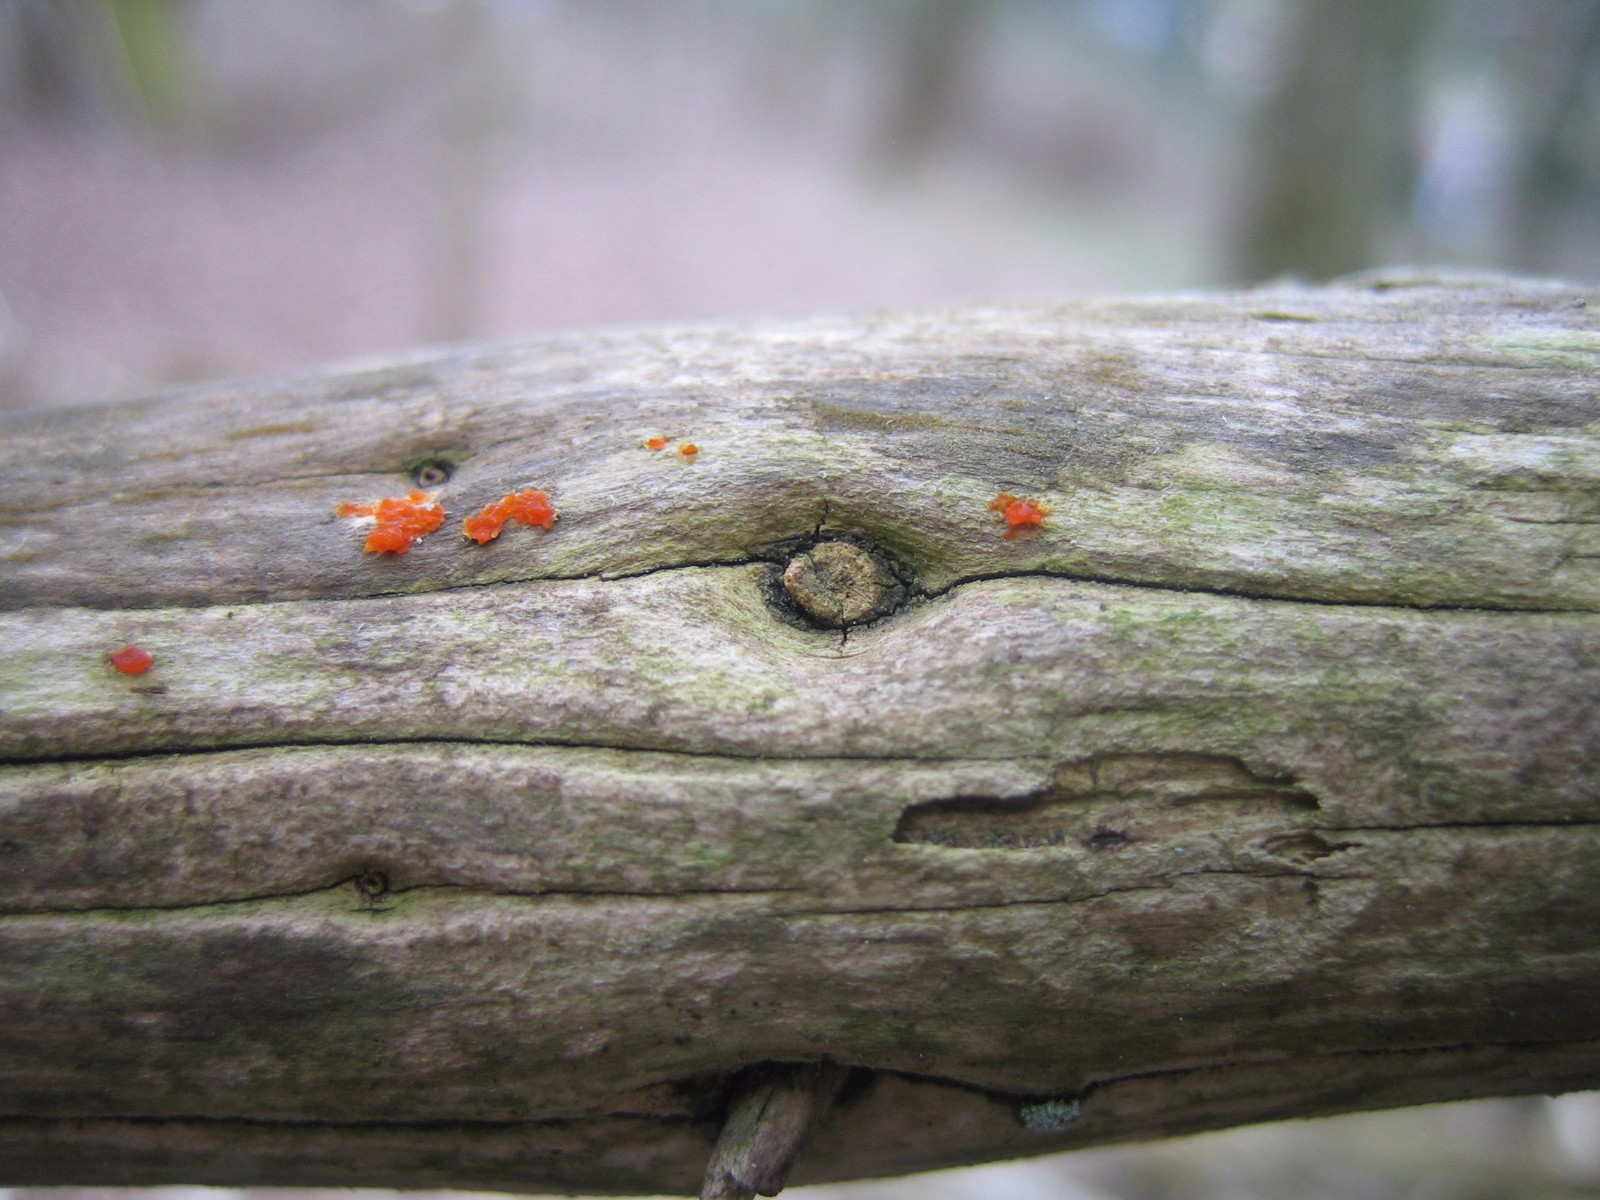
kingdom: Fungi
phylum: Basidiomycota
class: Dacrymycetes
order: Dacrymycetales
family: Dacrymycetaceae
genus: Dacrymyces
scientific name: Dacrymyces stillatus
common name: almindelig tåresvamp
